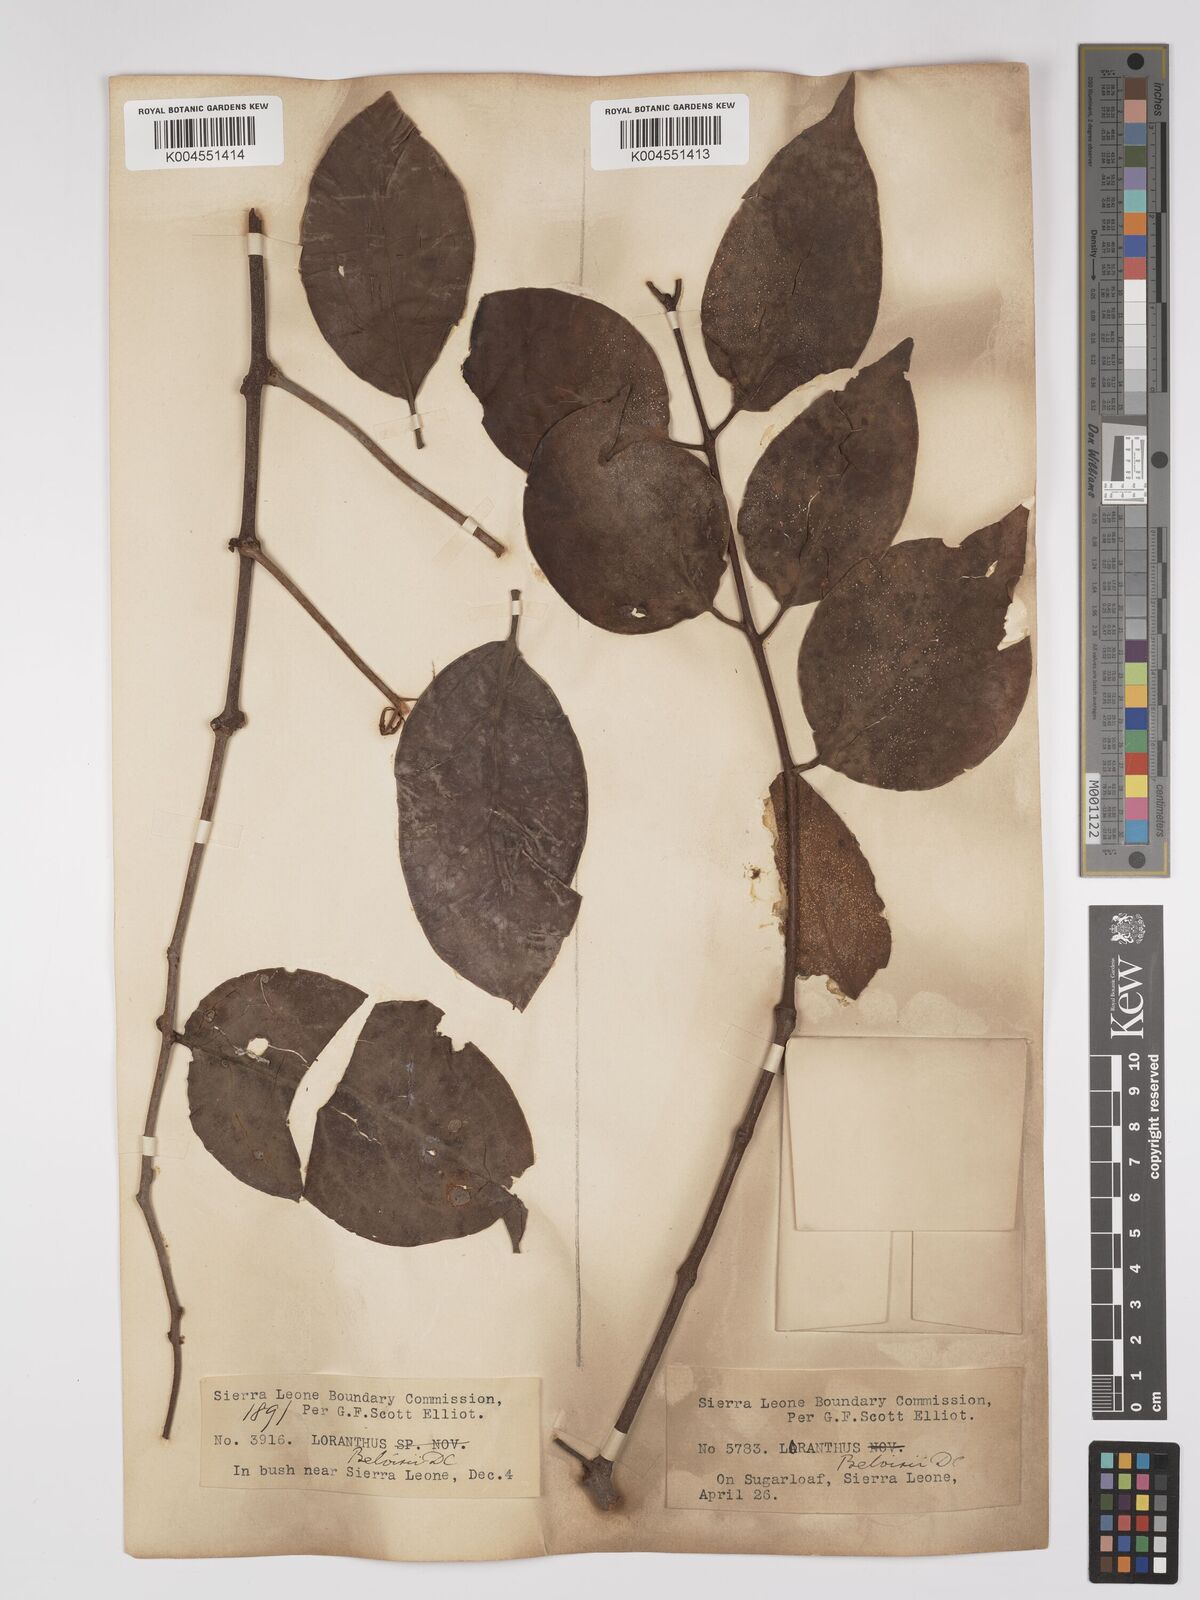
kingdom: Plantae
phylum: Tracheophyta
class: Magnoliopsida
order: Santalales
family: Loranthaceae
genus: Tapinanthus
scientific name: Tapinanthus bangwensis
